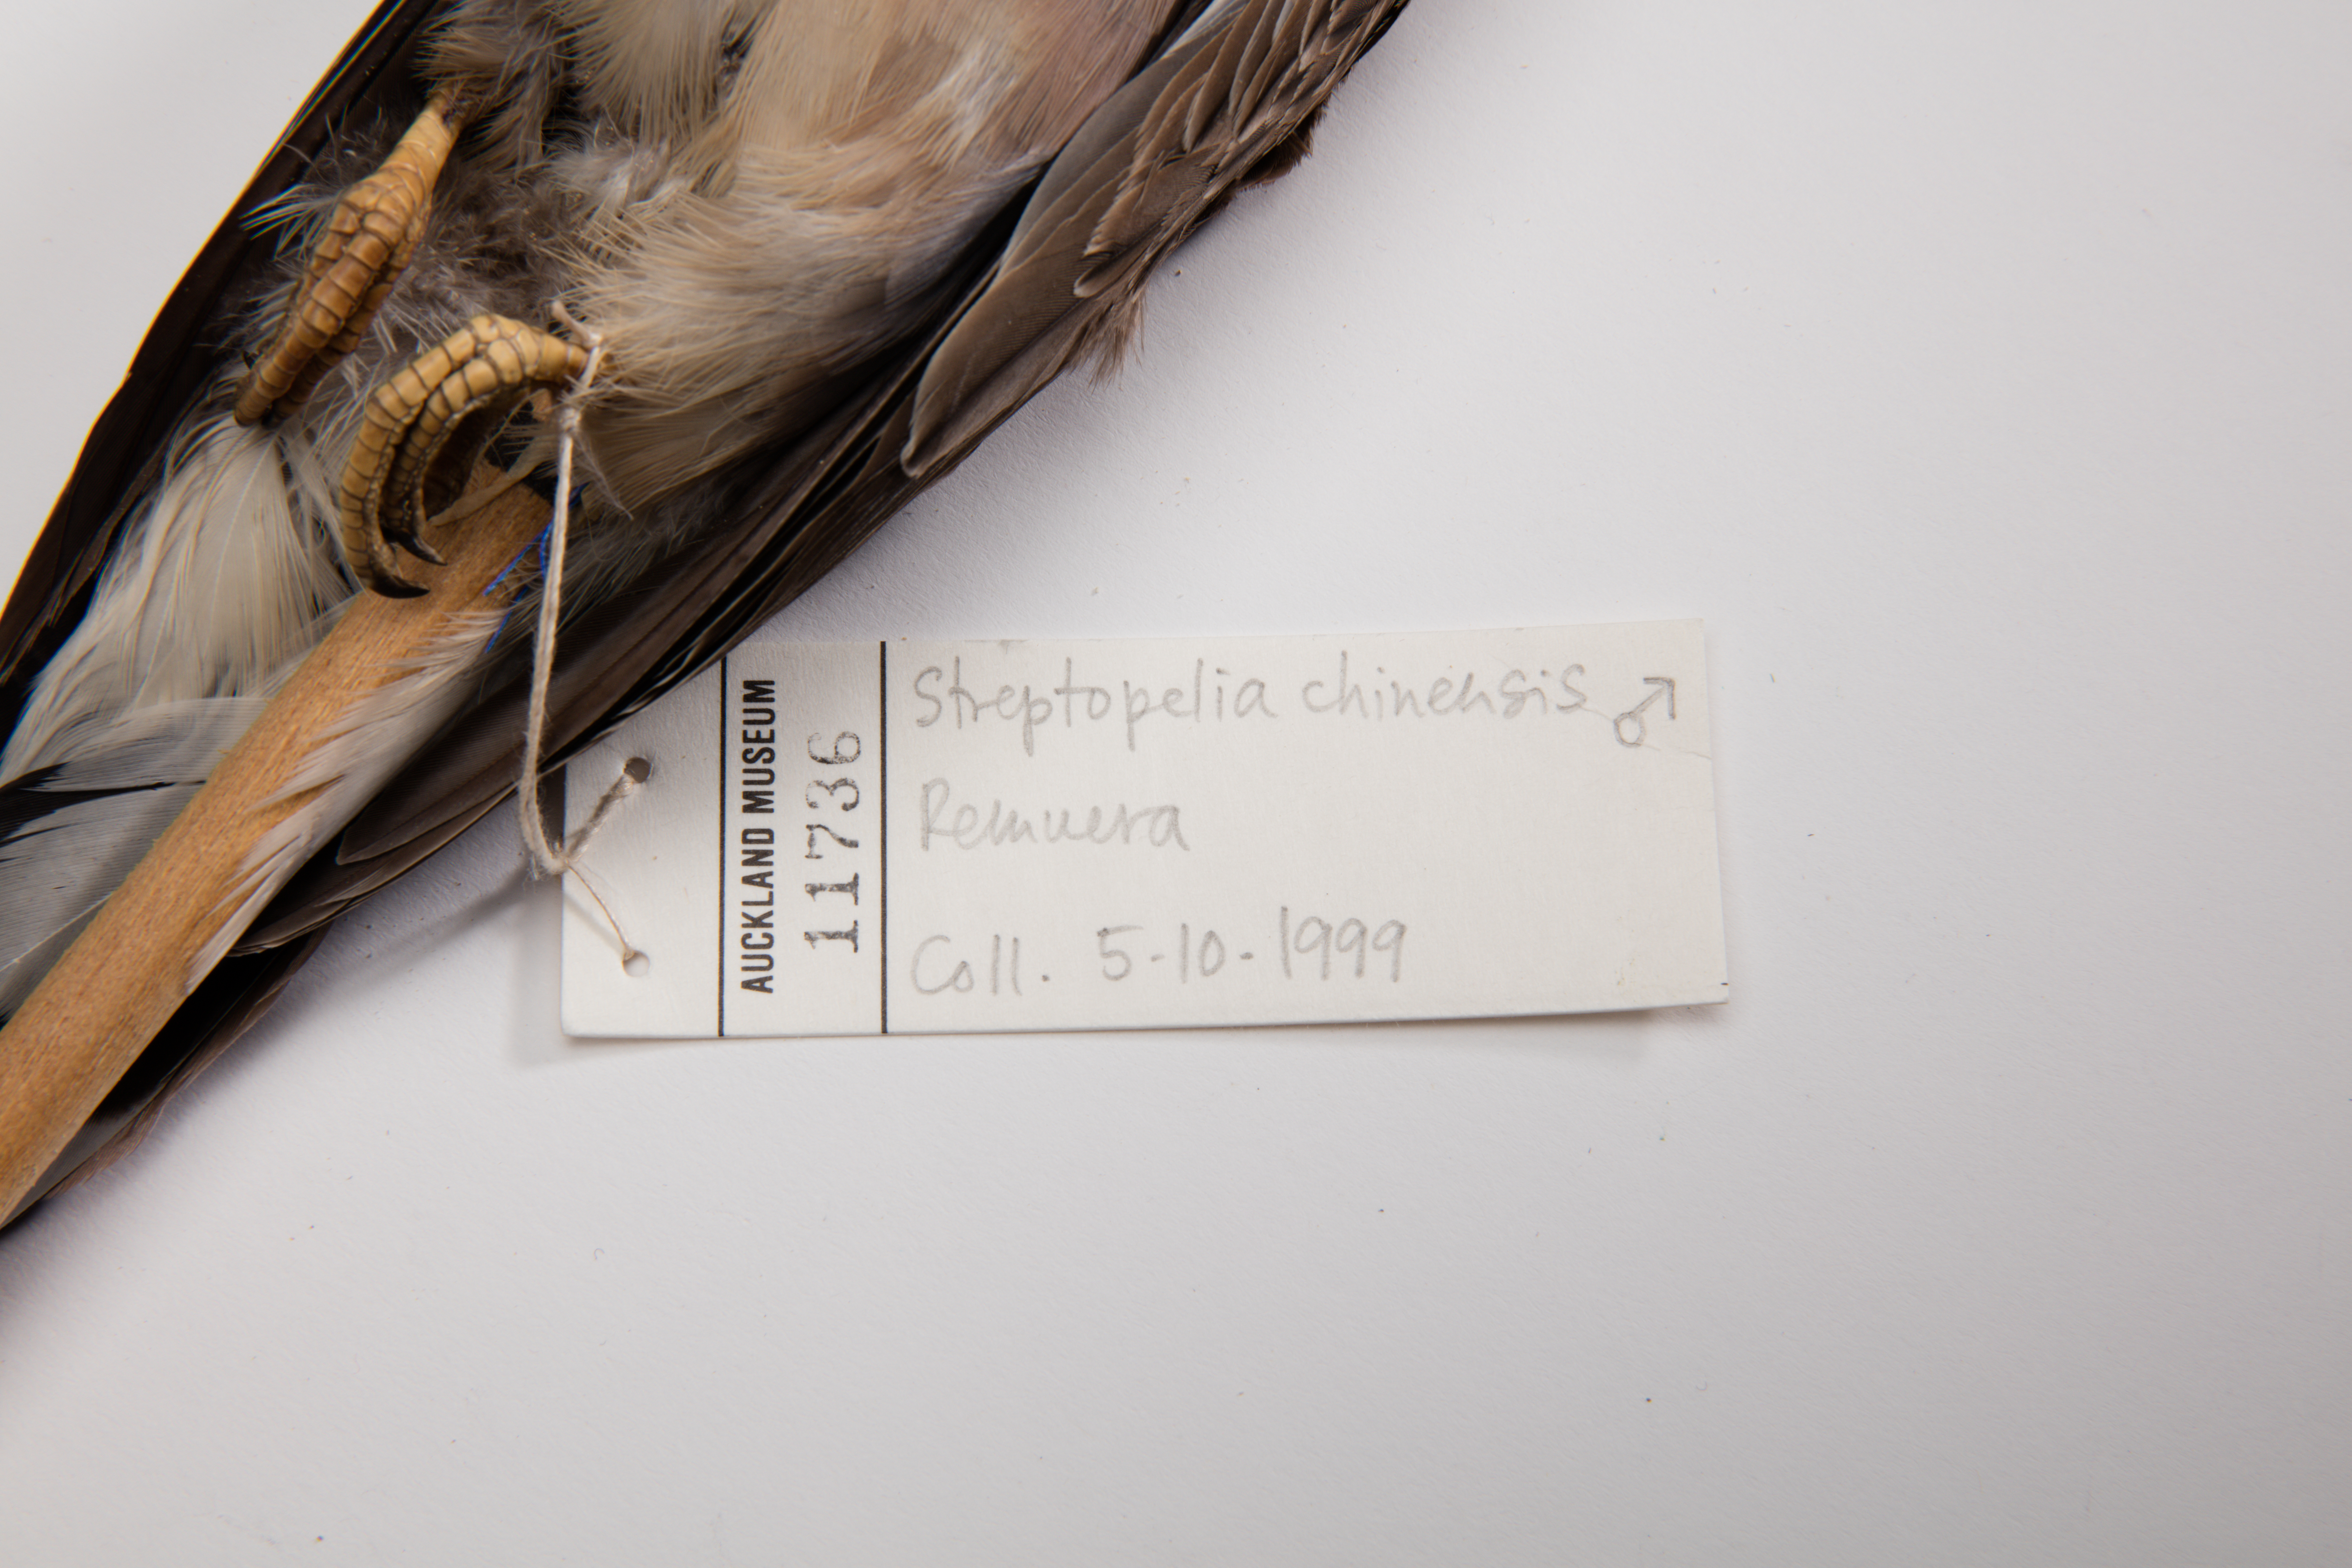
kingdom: Animalia
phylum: Chordata
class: Aves
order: Columbiformes
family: Columbidae
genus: Spilopelia
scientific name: Spilopelia chinensis
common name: Spotted dove
